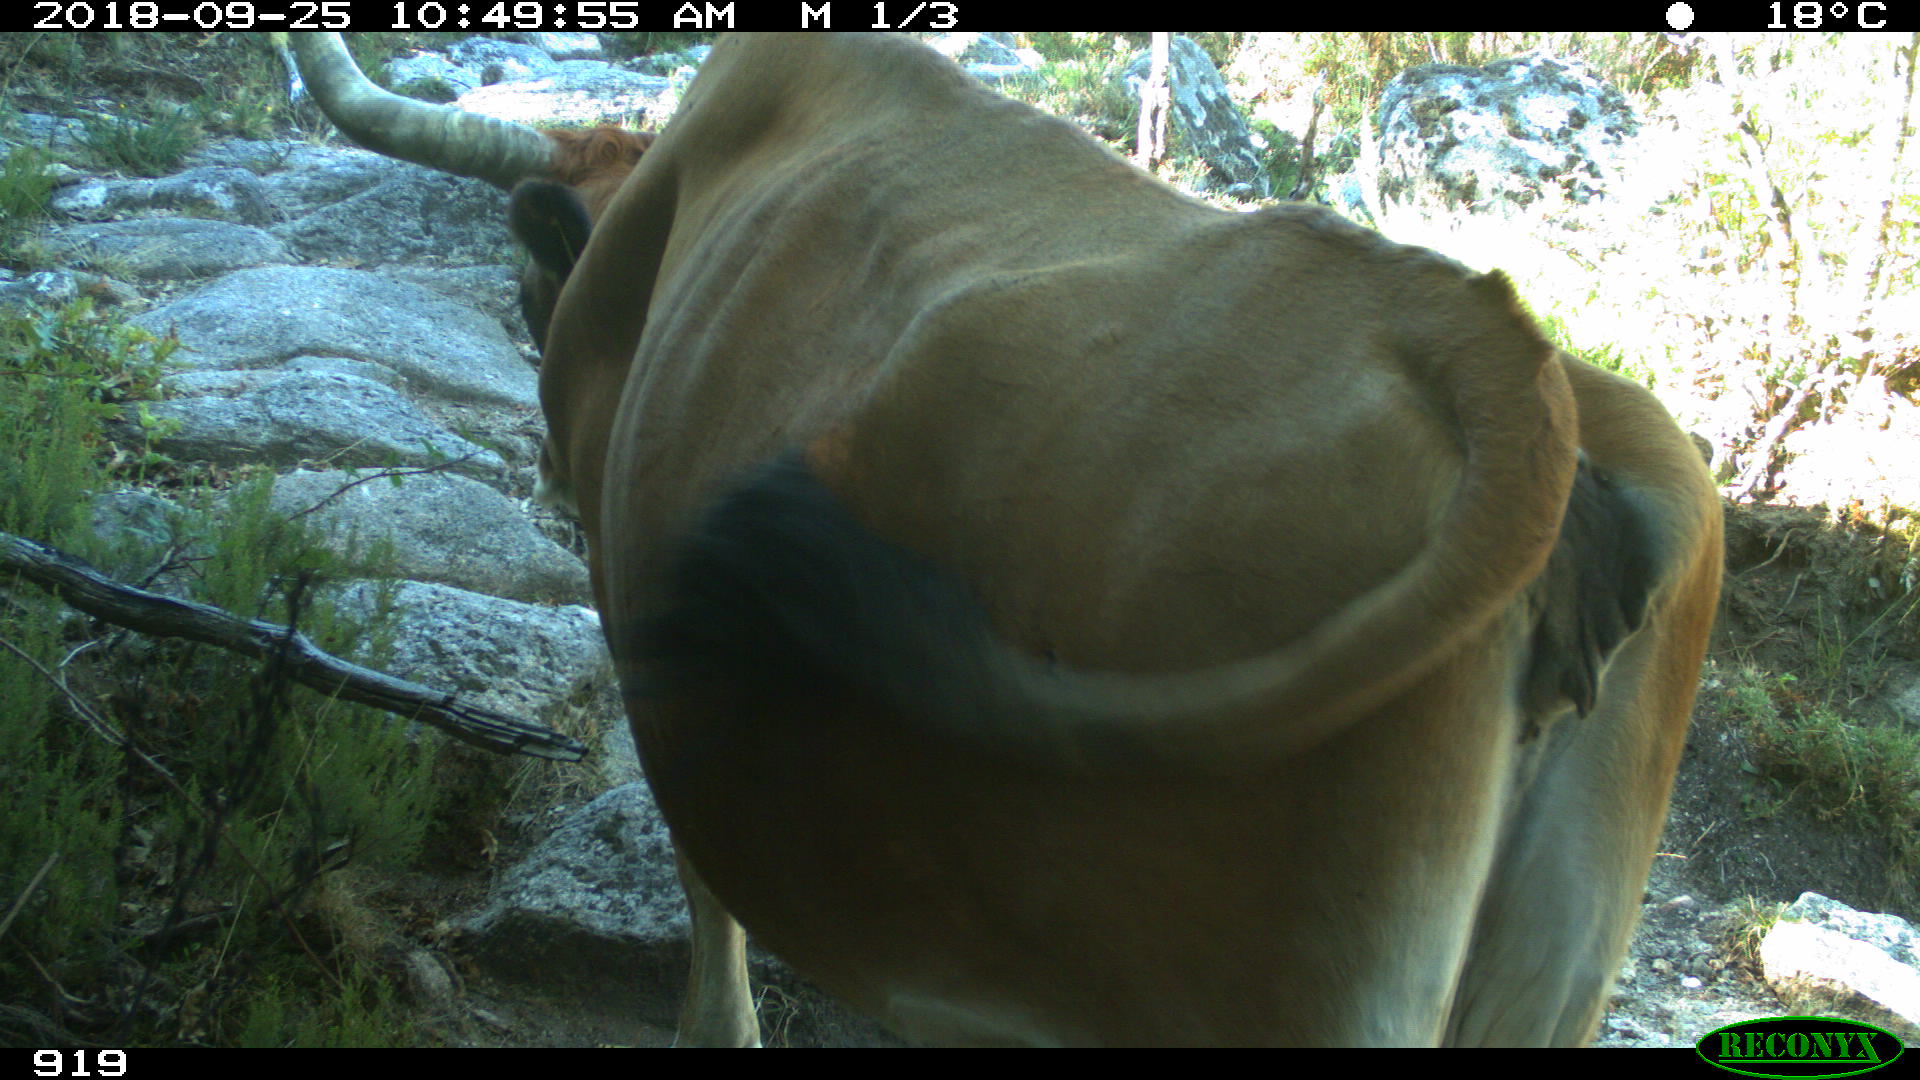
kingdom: Animalia
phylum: Chordata
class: Mammalia
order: Artiodactyla
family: Bovidae
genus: Bos
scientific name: Bos taurus
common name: Domesticated cattle
